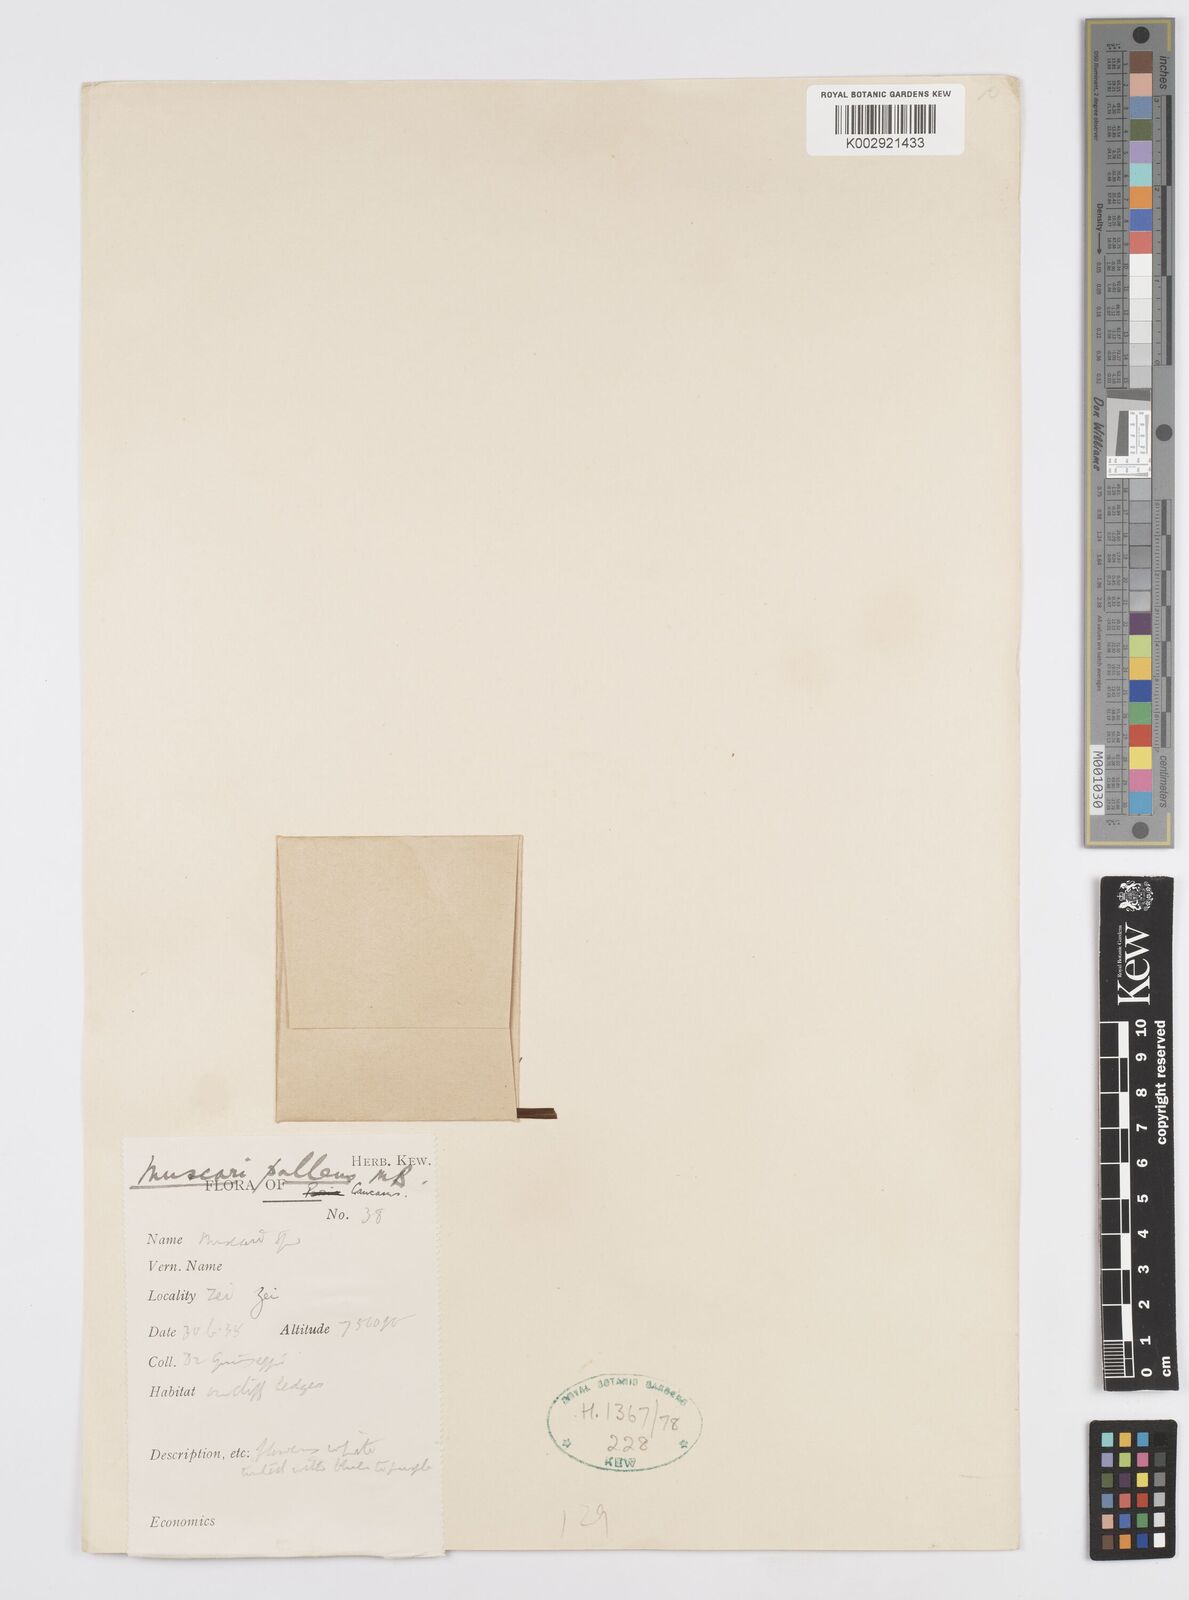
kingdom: Plantae
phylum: Tracheophyta
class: Liliopsida
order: Asparagales
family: Asparagaceae
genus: Muscari
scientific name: Muscari
